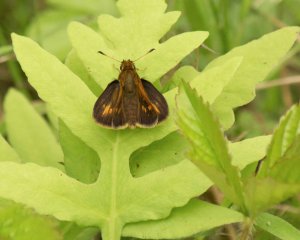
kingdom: Animalia
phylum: Arthropoda
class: Insecta
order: Lepidoptera
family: Hesperiidae
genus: Polites
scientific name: Polites coras
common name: Peck's Skipper
